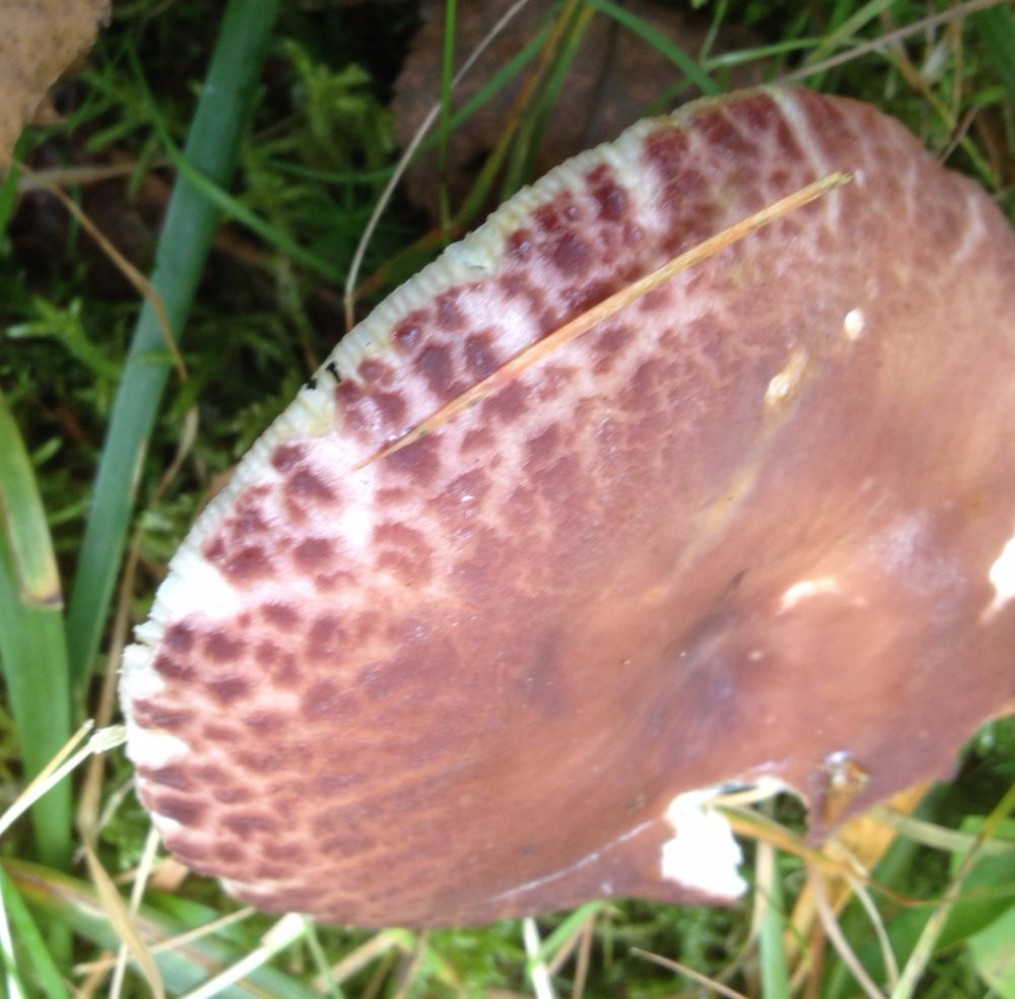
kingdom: Fungi
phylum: Basidiomycota
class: Agaricomycetes
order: Russulales
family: Russulaceae
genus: Russula
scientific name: Russula vesca
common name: spiselig skørhat
